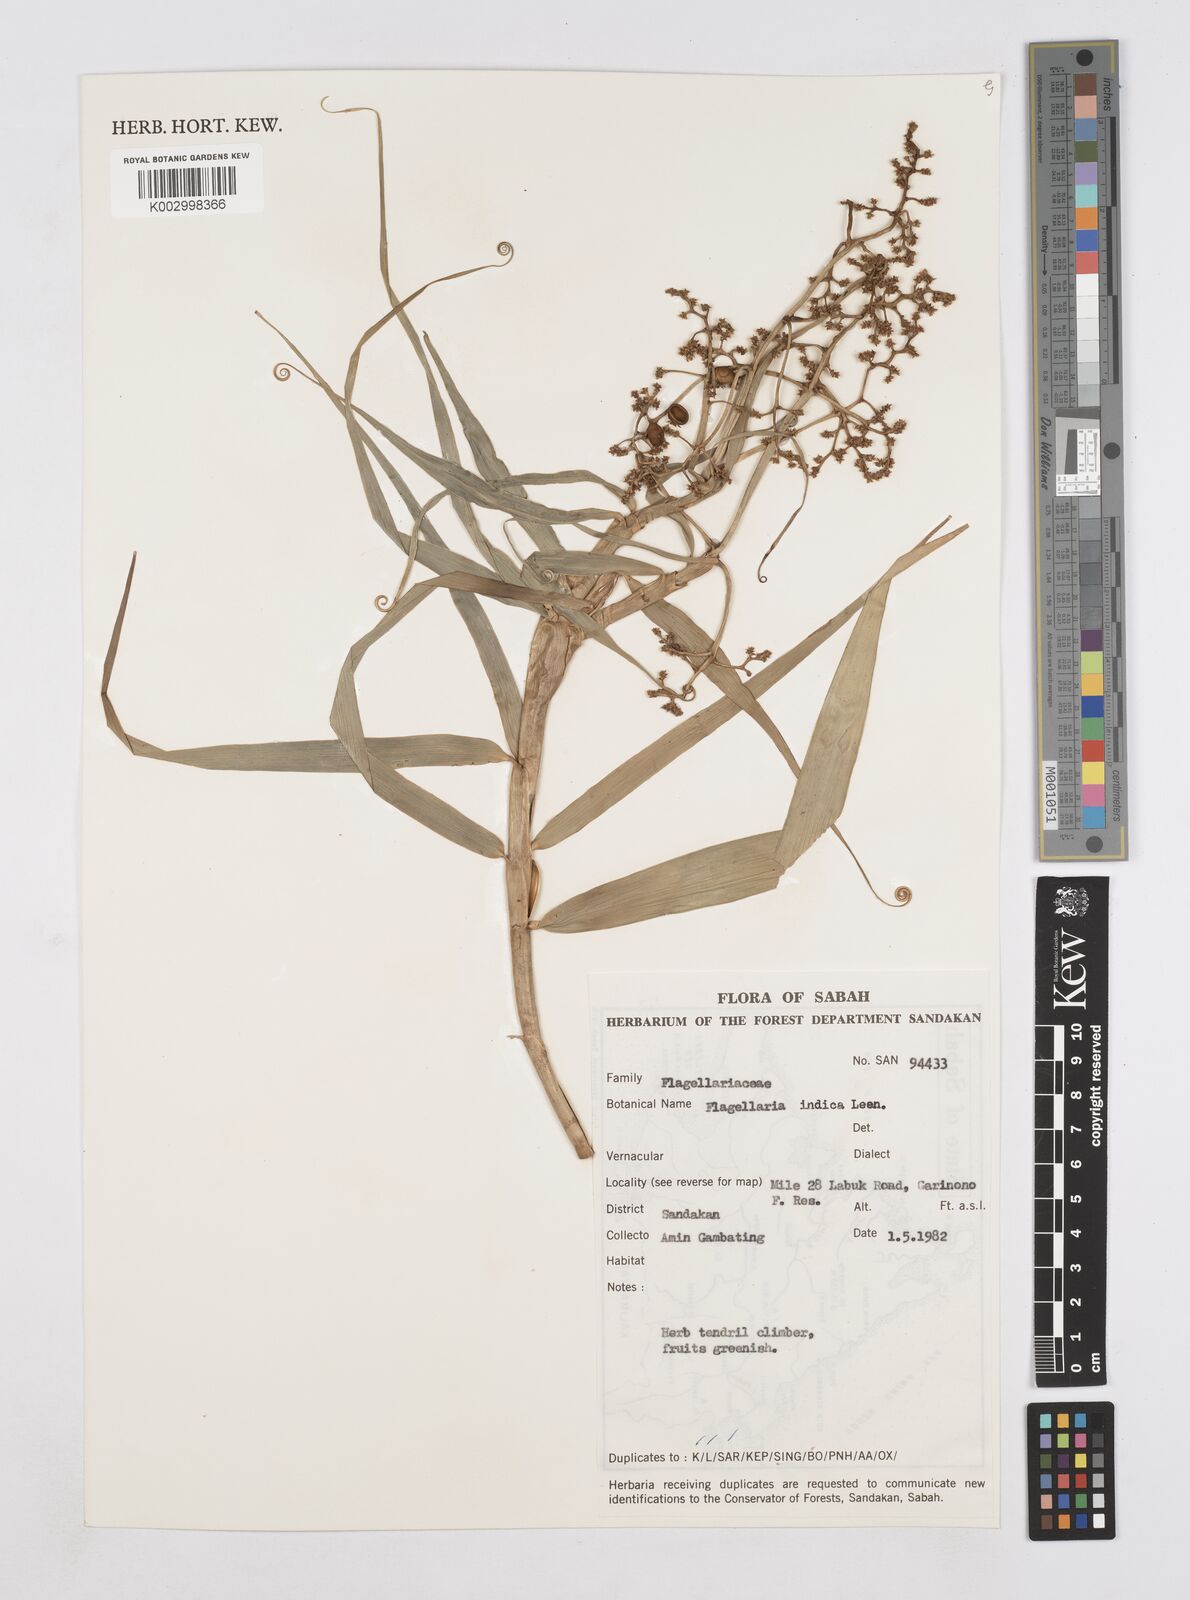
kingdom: Plantae
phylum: Tracheophyta
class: Liliopsida
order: Poales
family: Flagellariaceae
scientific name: Flagellariaceae
